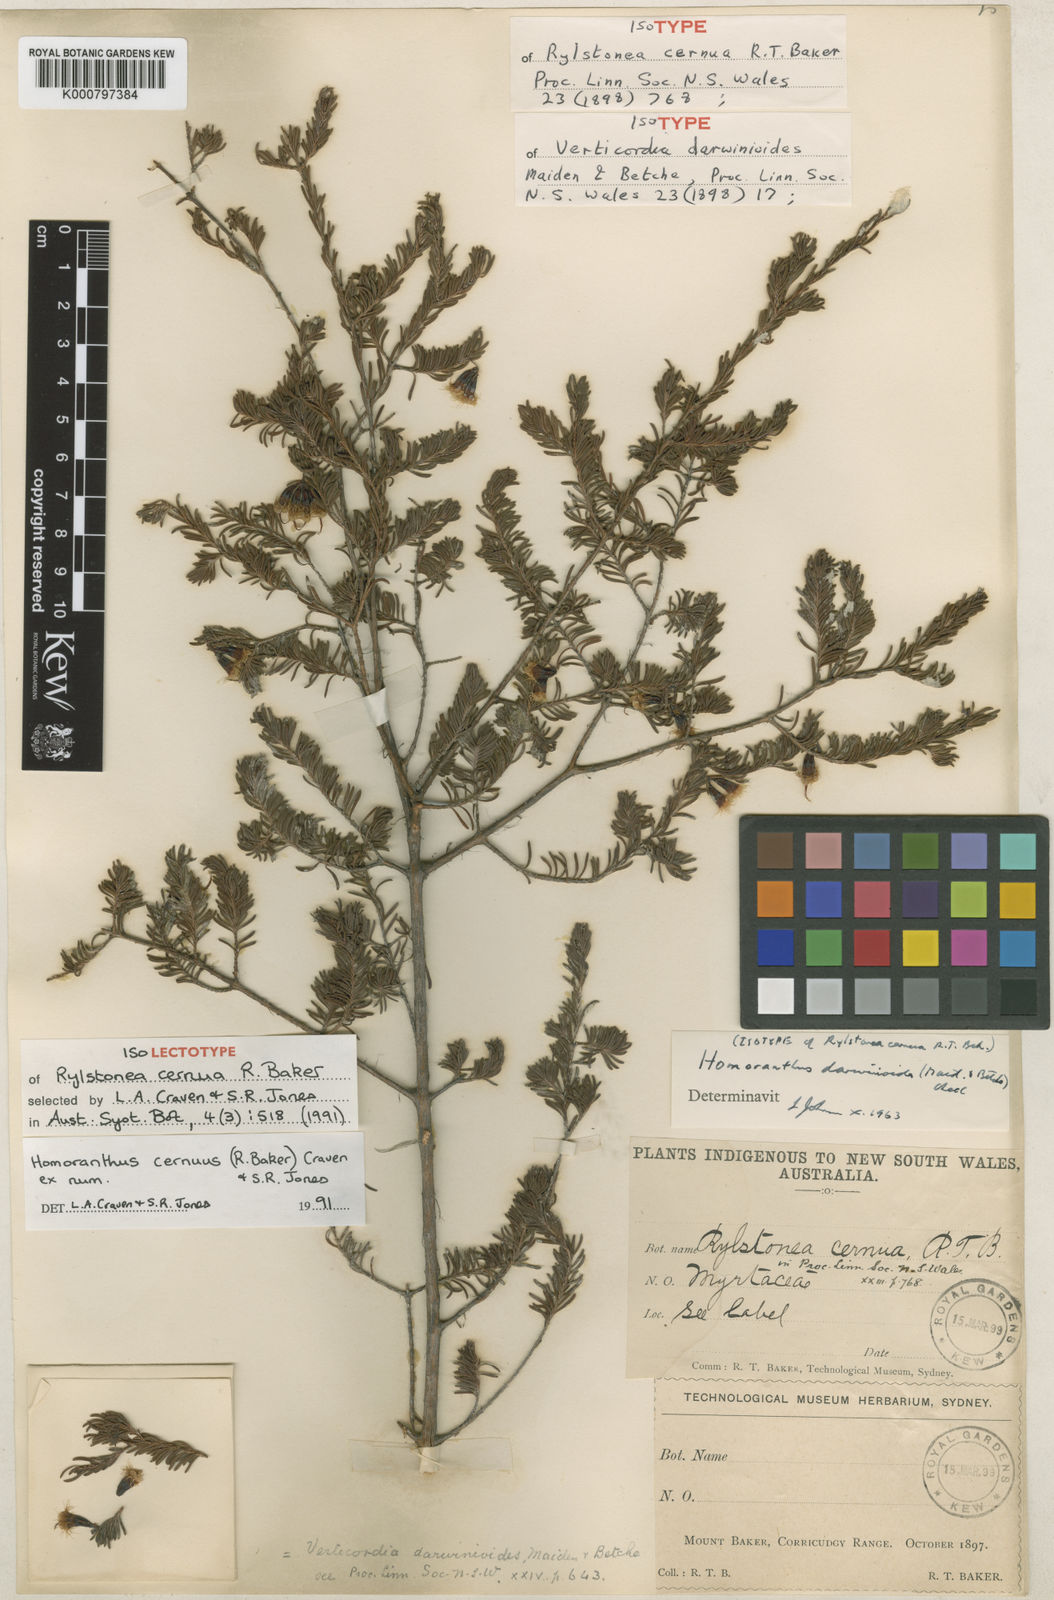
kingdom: Plantae
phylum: Tracheophyta
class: Magnoliopsida
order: Myrtales
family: Myrtaceae
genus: Homoranthus
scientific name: Homoranthus cernuus
